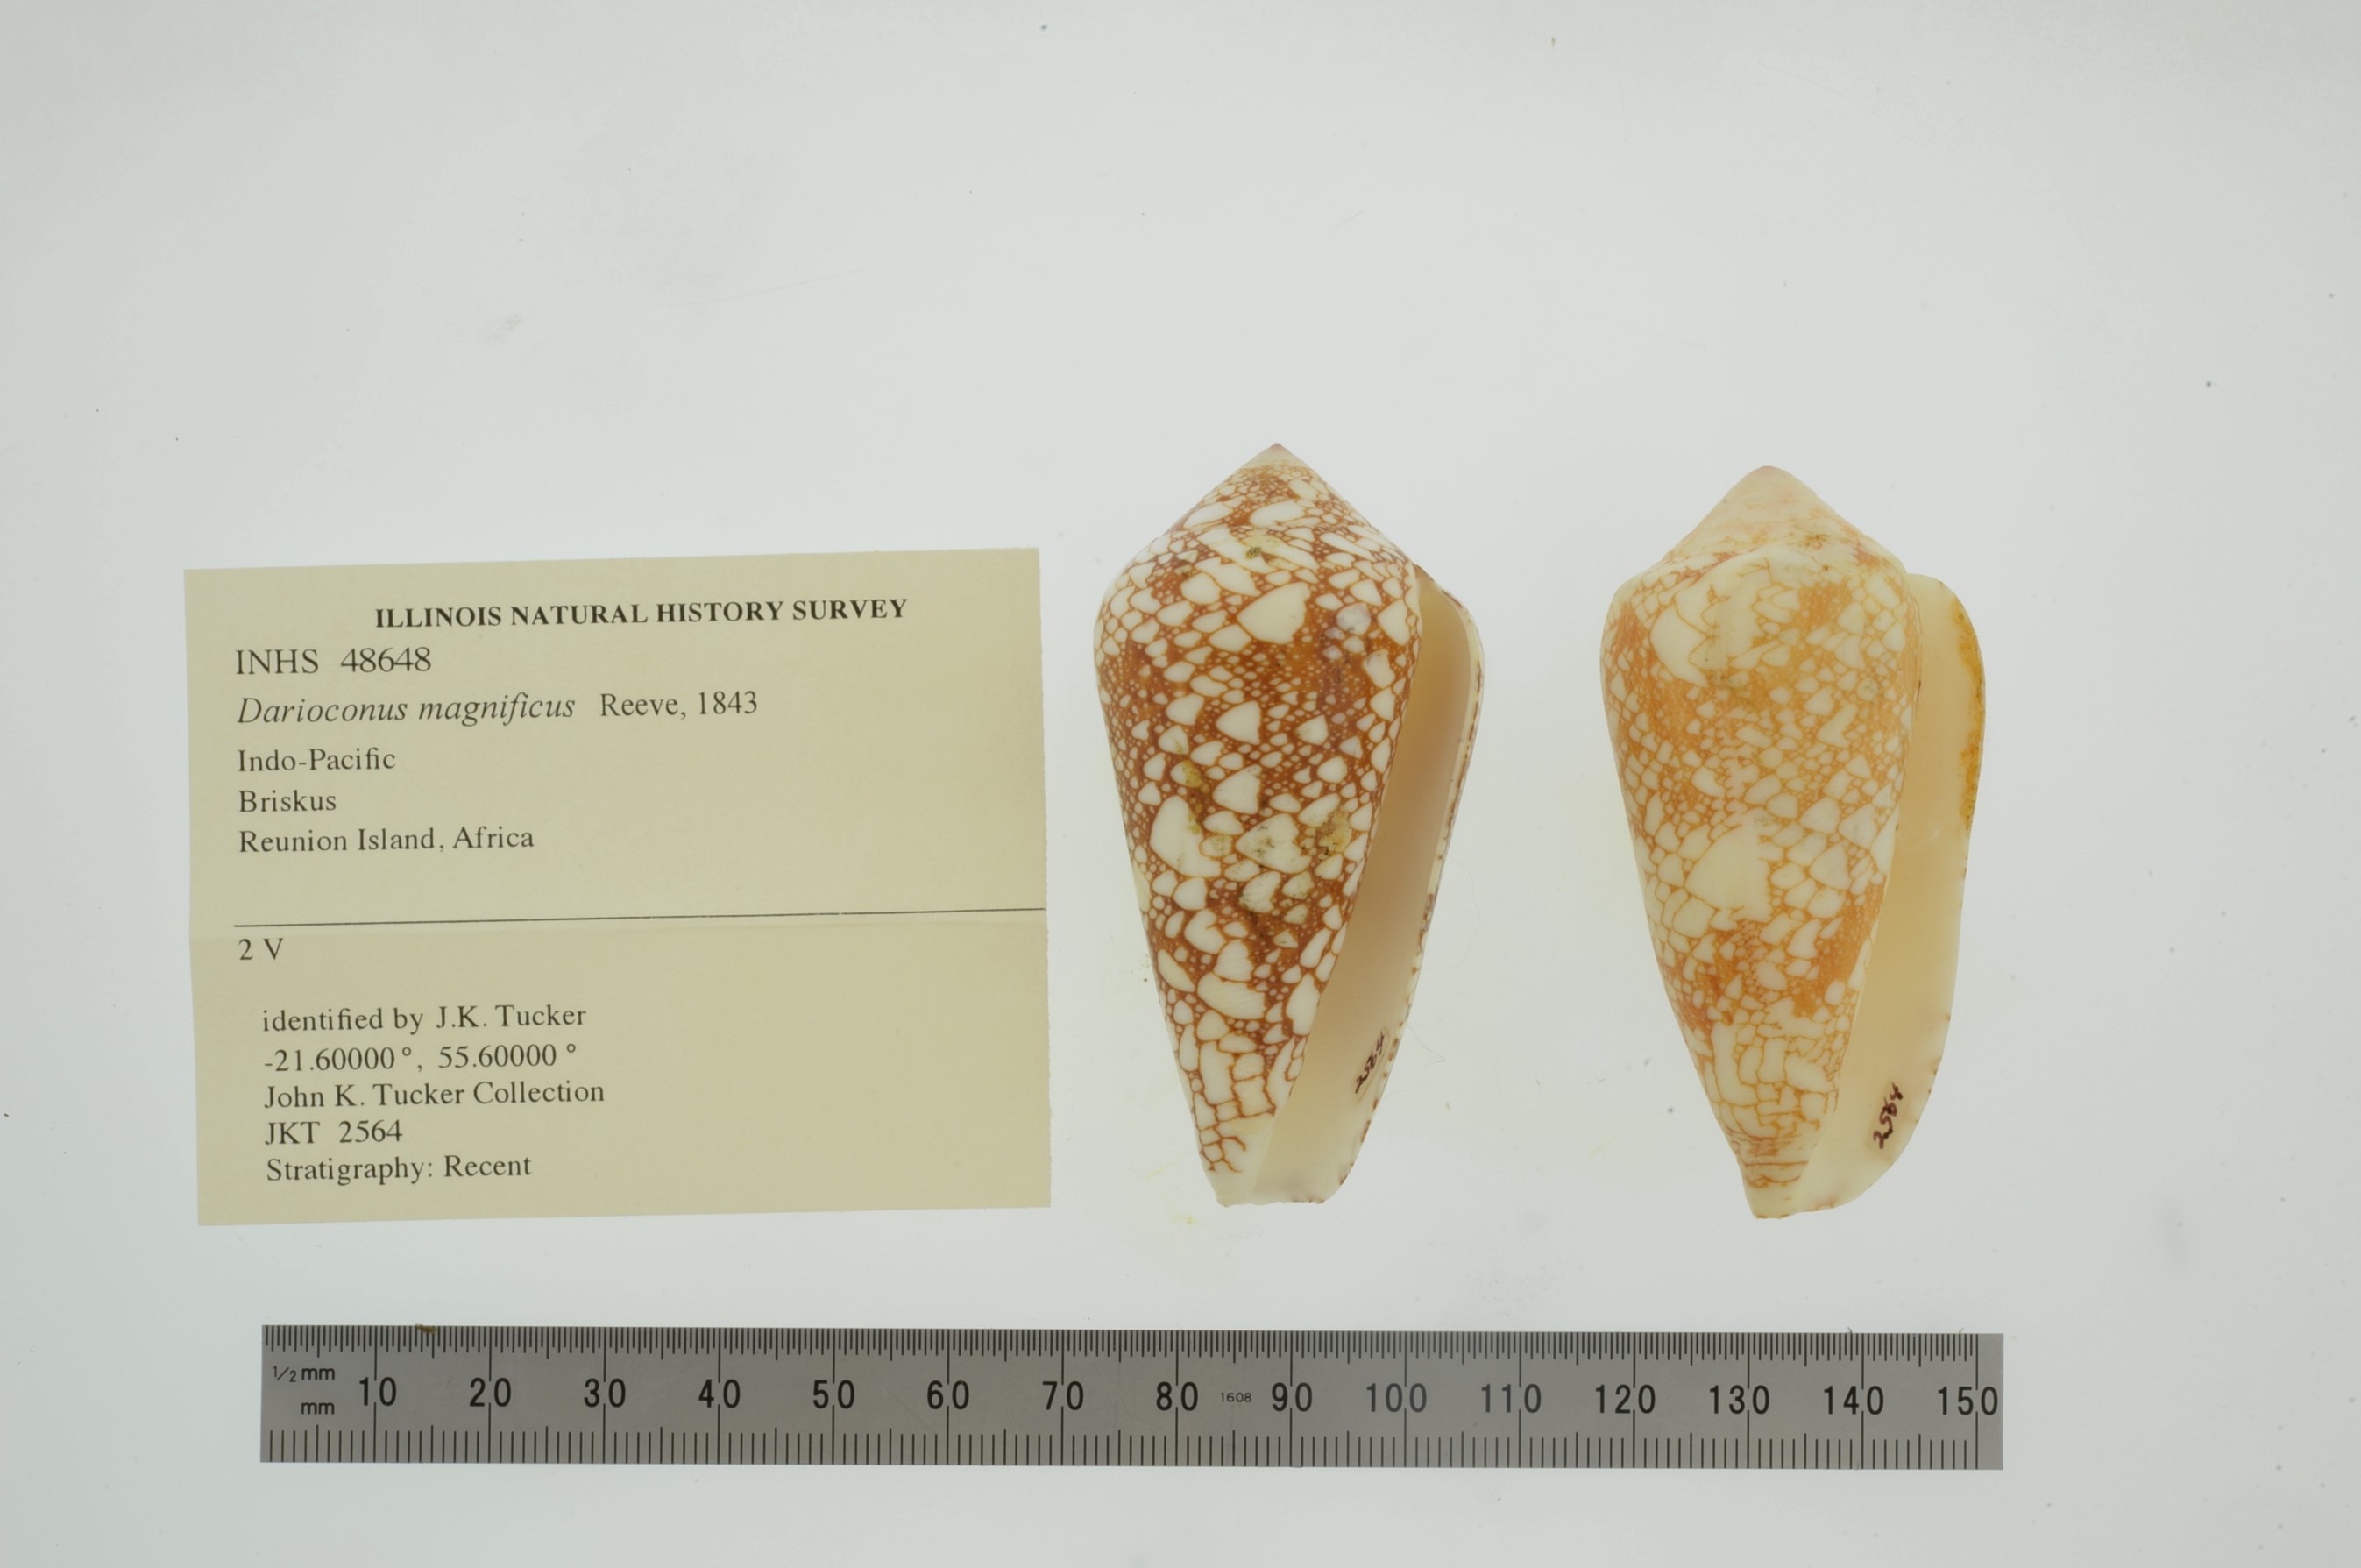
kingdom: Animalia
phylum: Mollusca
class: Gastropoda
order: Neogastropoda
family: Conidae
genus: Conus
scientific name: Conus magnificus
